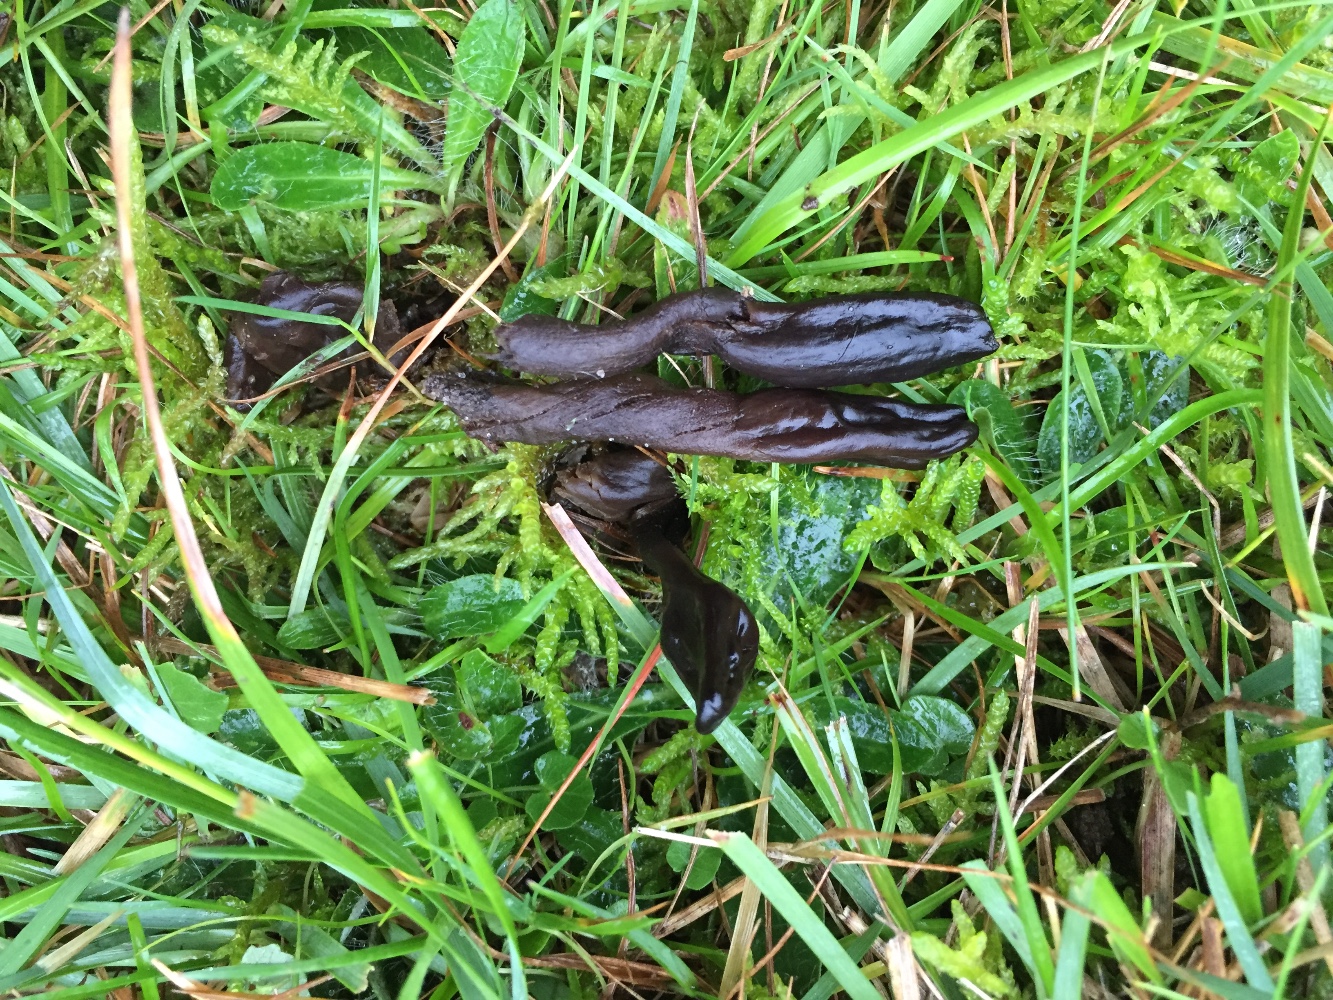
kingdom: Fungi
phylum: Ascomycota
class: Geoglossomycetes
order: Geoglossales
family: Geoglossaceae
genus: Geoglossum
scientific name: Geoglossum atropurpureum
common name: purpursort farvetunge
